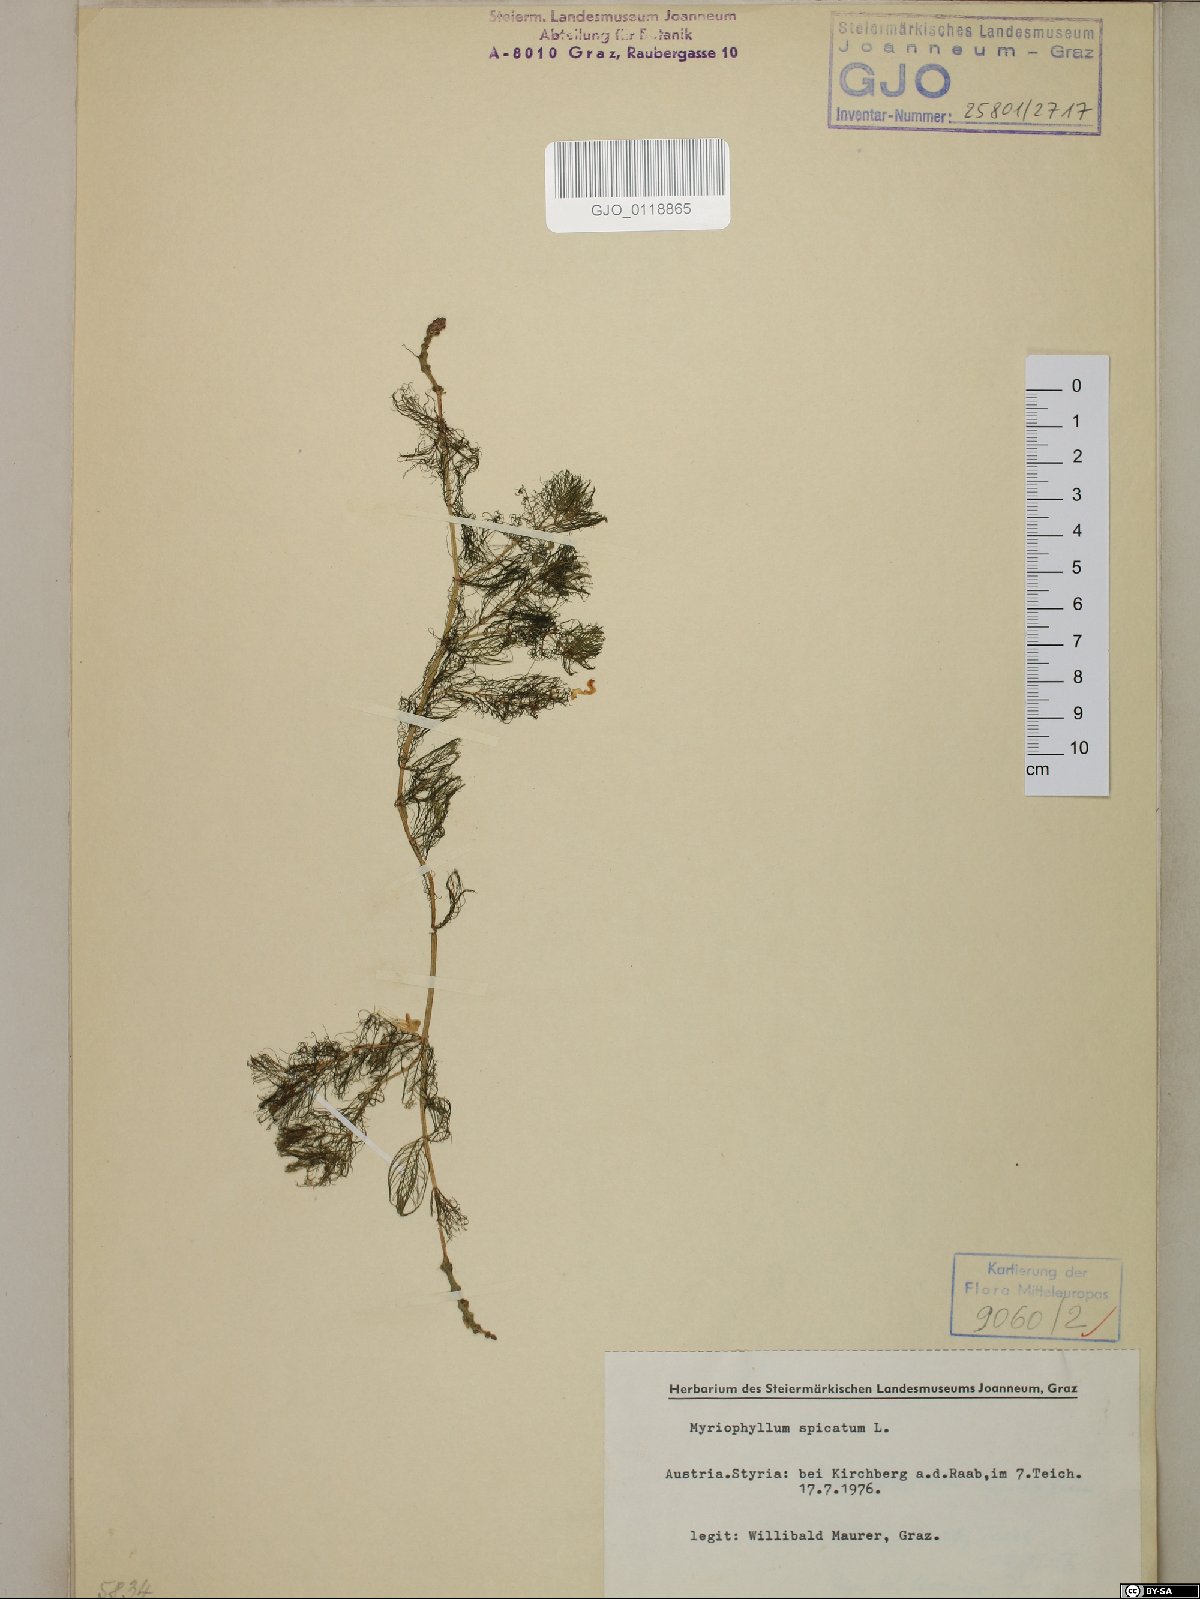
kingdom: Plantae
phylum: Tracheophyta
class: Magnoliopsida
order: Saxifragales
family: Haloragaceae
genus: Myriophyllum
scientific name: Myriophyllum spicatum
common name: Spiked water-milfoil
